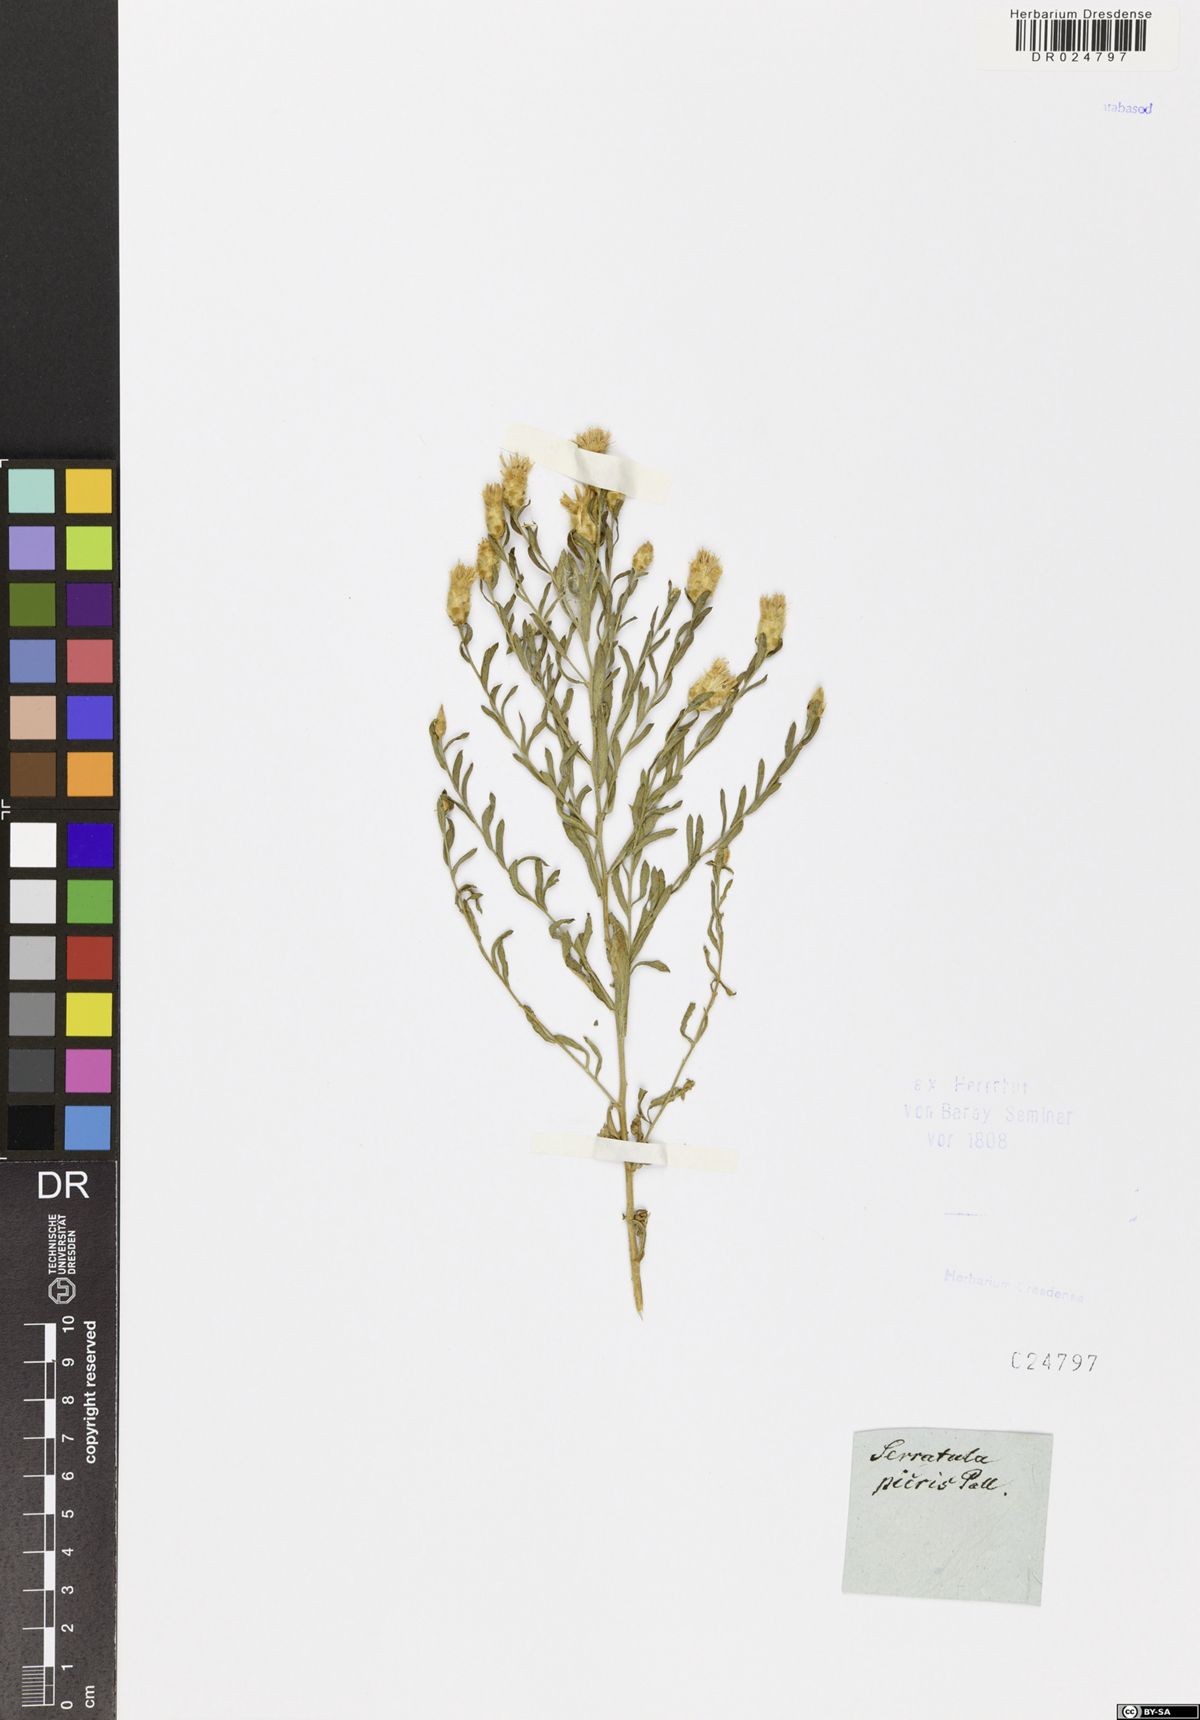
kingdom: Plantae
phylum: Tracheophyta
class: Magnoliopsida
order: Asterales
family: Asteraceae
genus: Leuzea
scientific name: Leuzea repens
